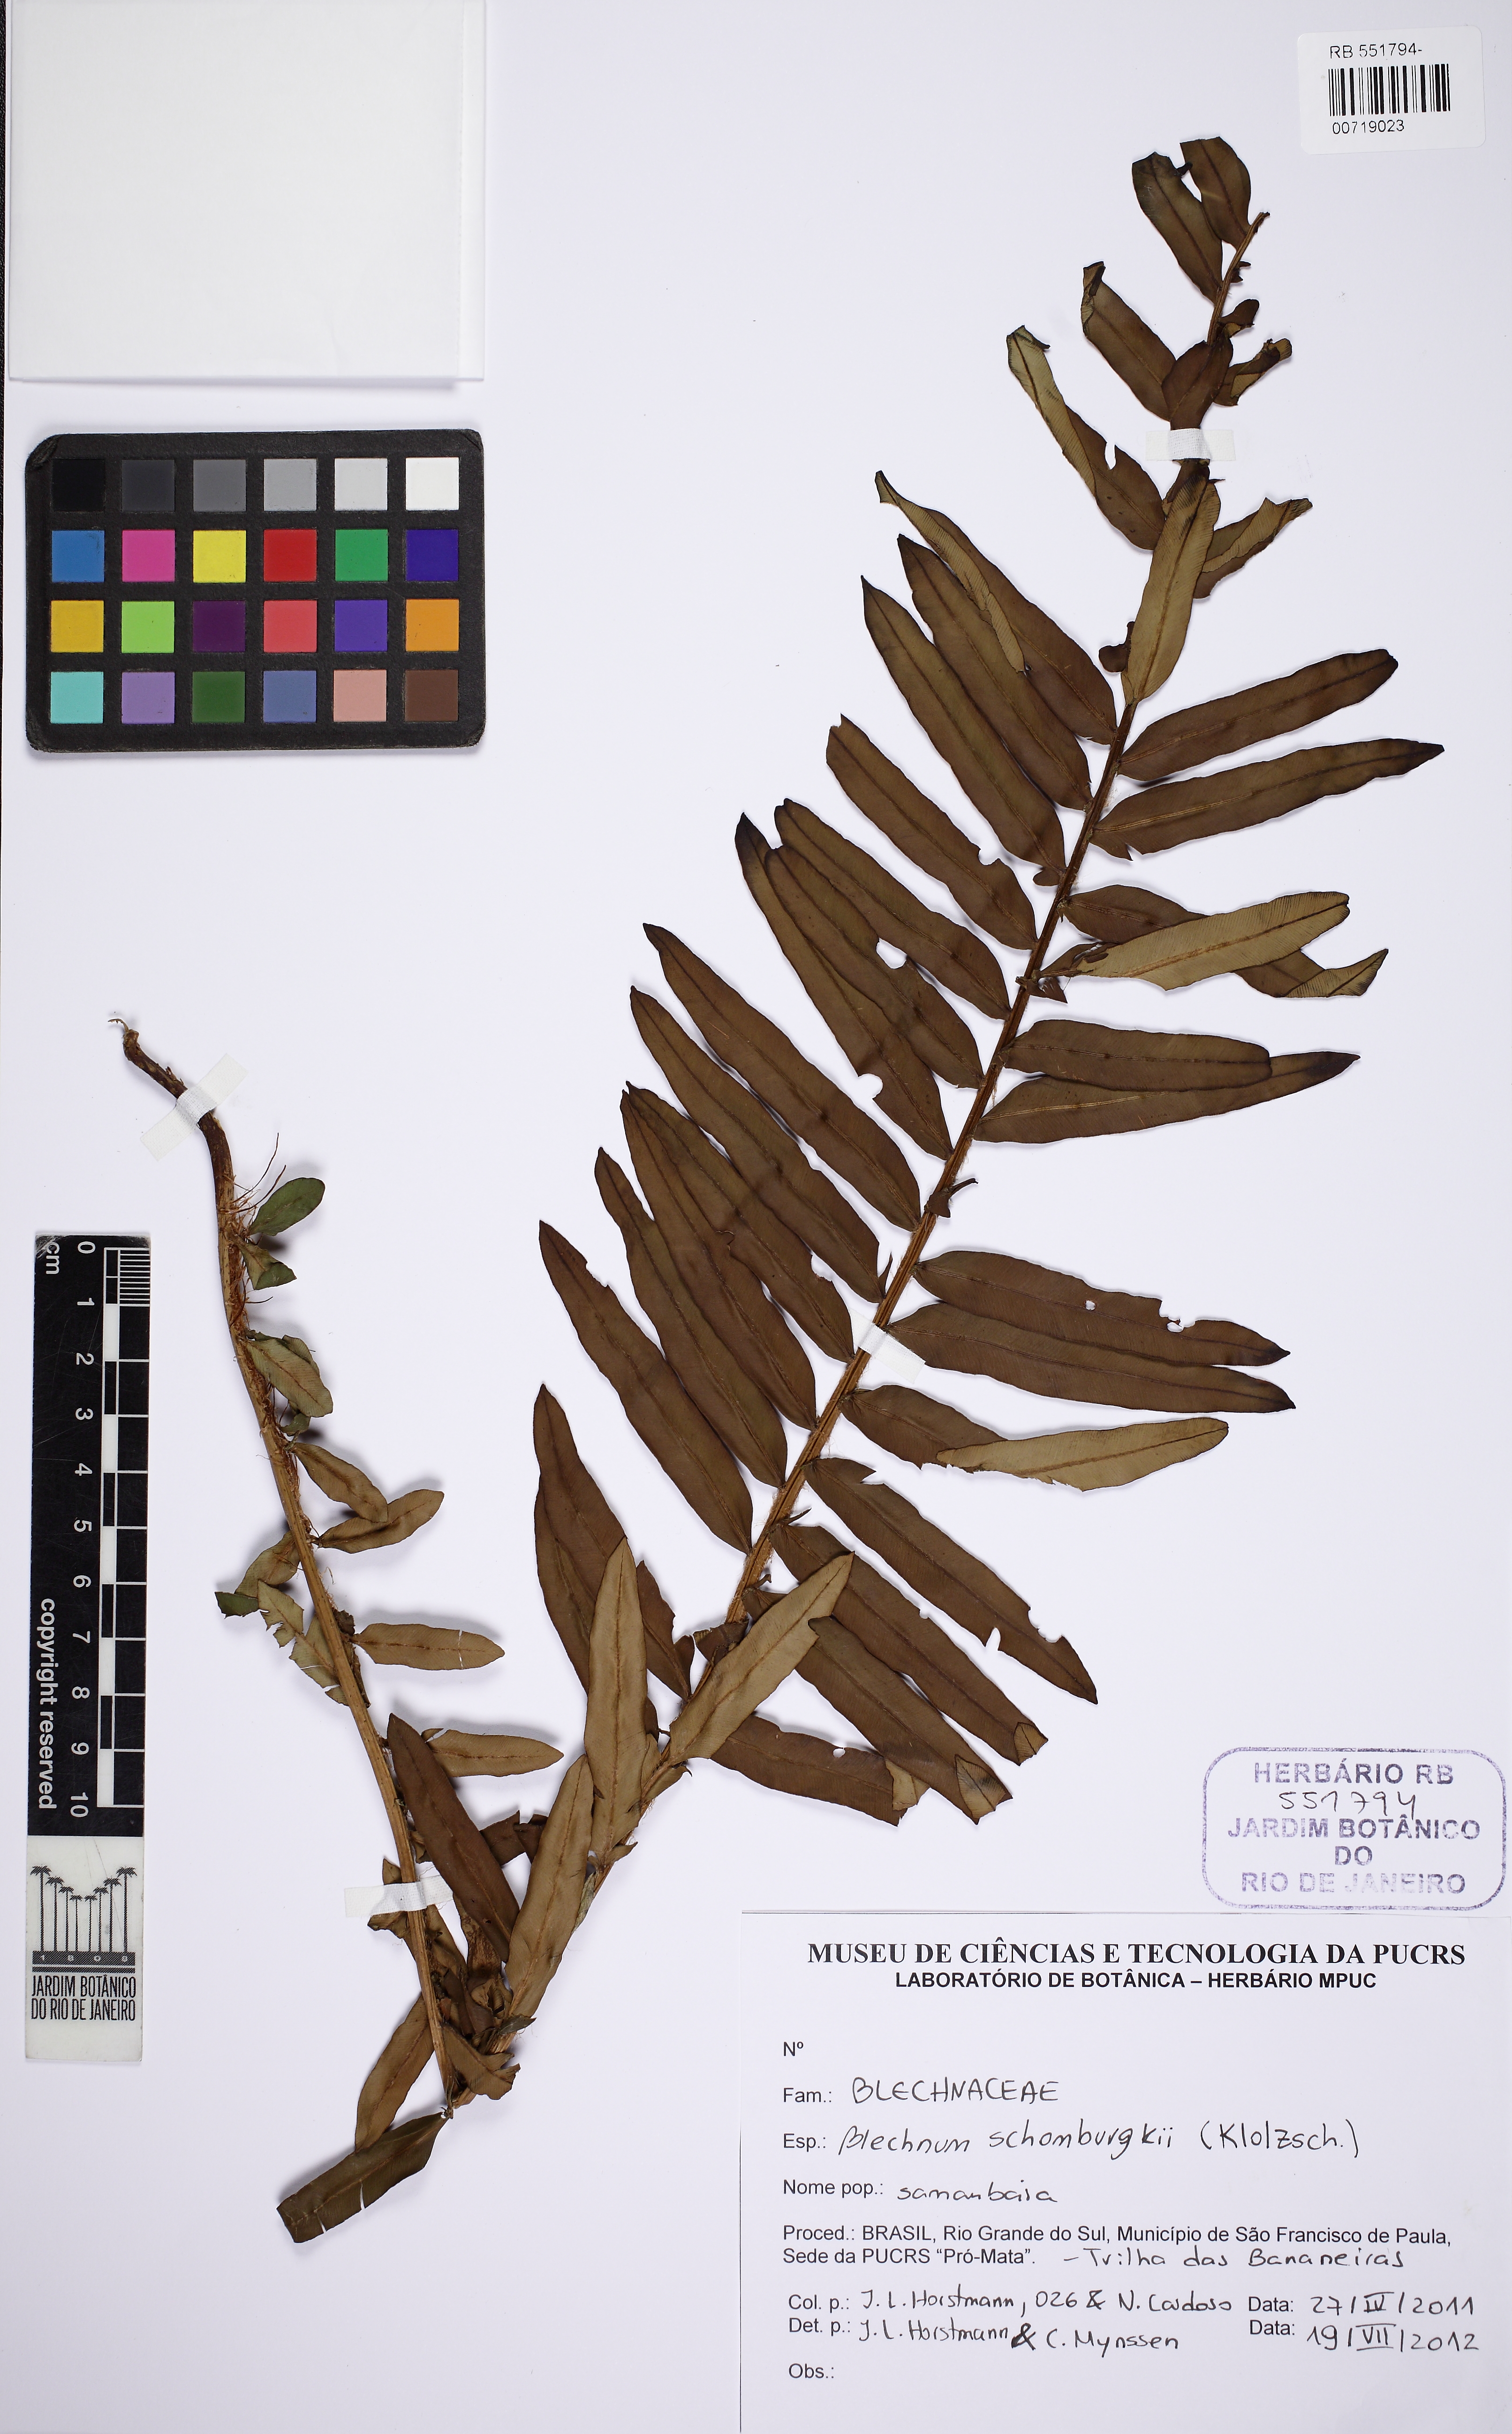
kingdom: Plantae
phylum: Tracheophyta
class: Polypodiopsida
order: Polypodiales
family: Blechnaceae
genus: Lomariocycas
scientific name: Lomariocycas schomburgkii
